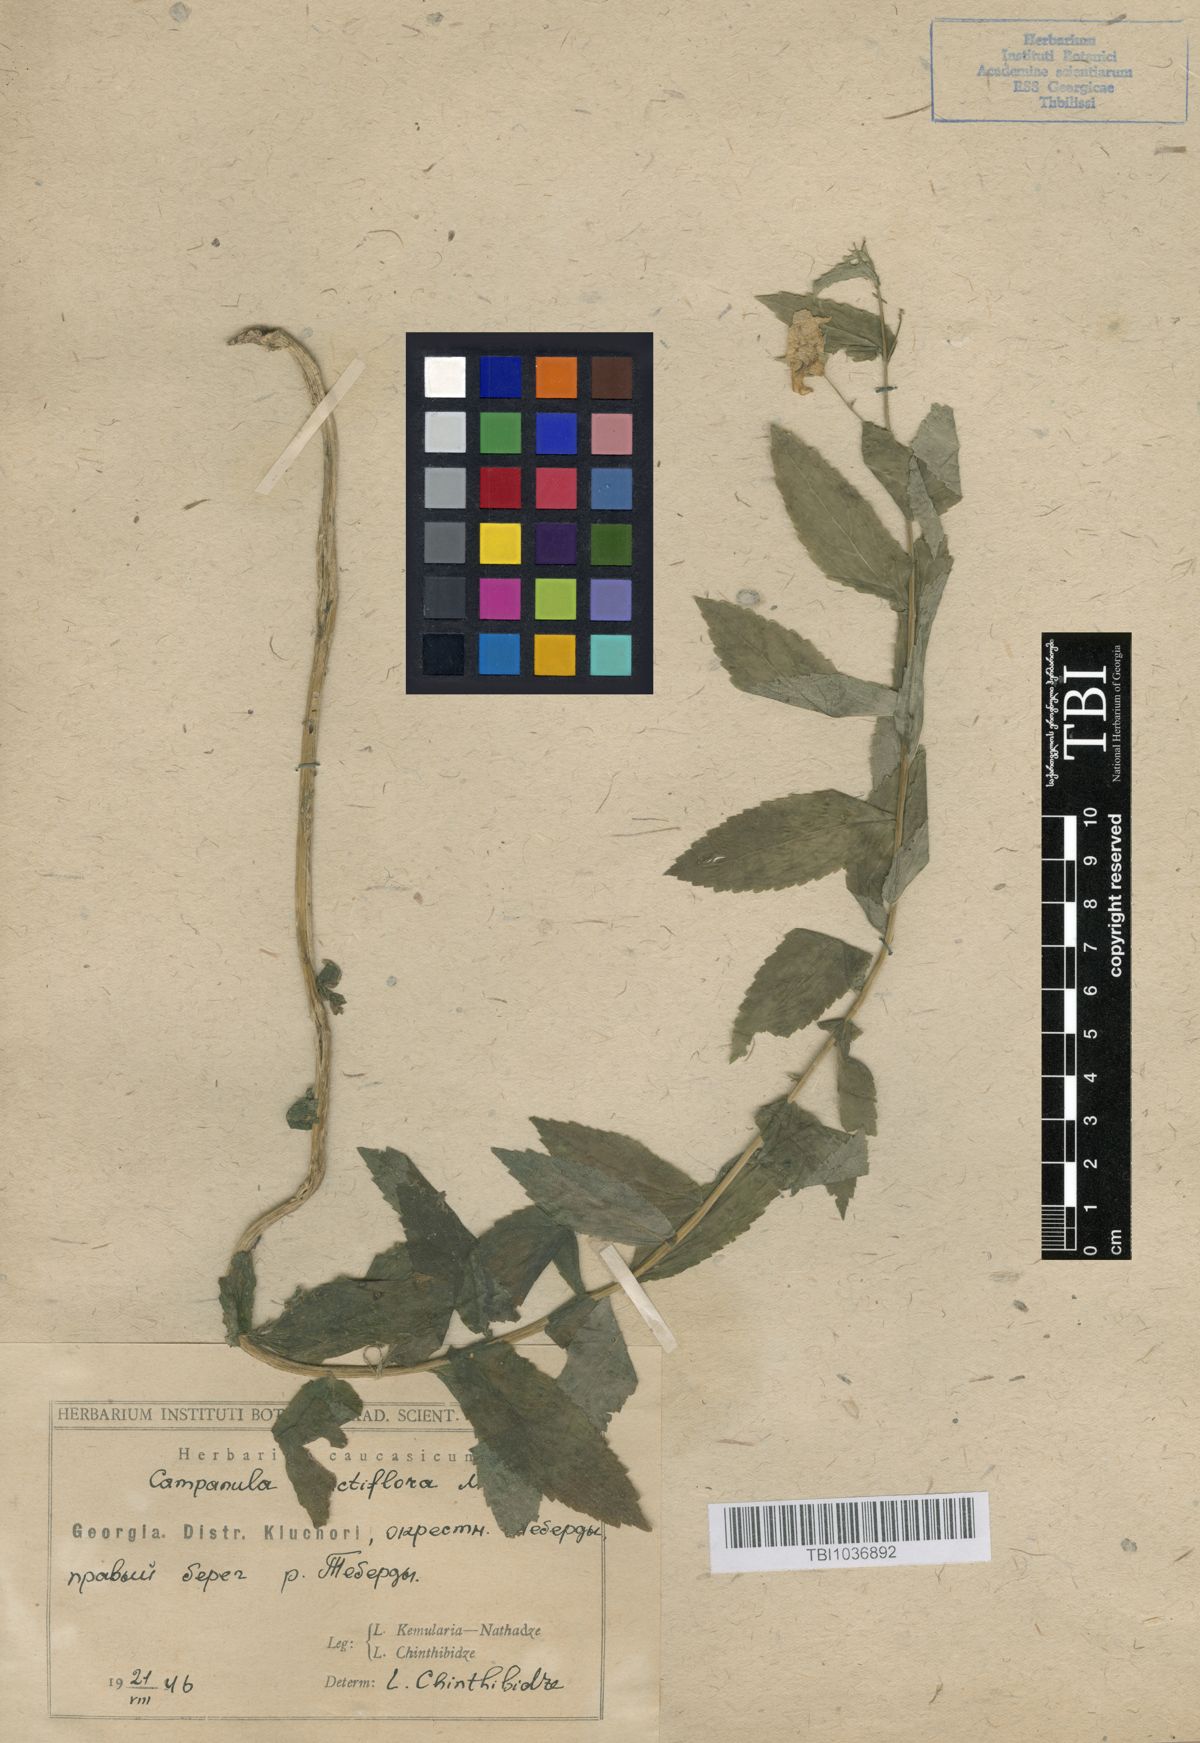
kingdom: Plantae
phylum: Tracheophyta
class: Magnoliopsida
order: Asterales
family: Campanulaceae
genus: Campanula
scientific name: Campanula lactiflora
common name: Milky bellflower
